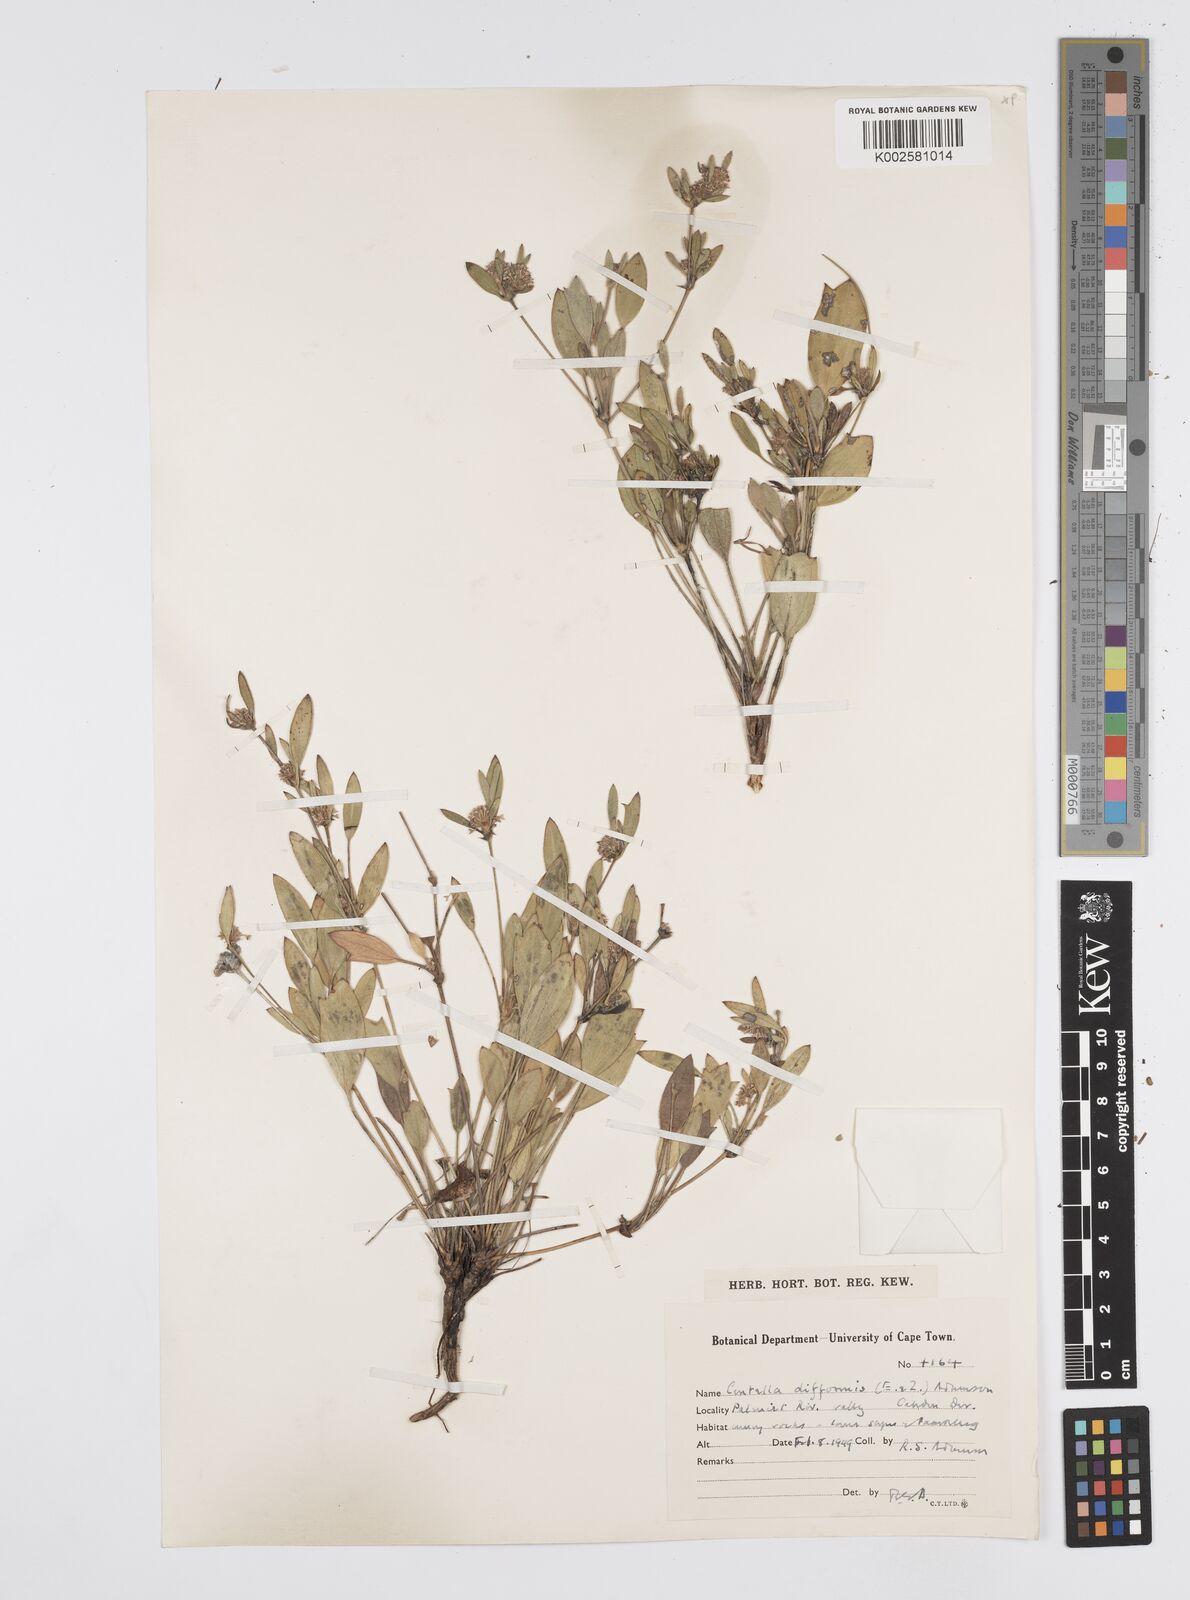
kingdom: Plantae
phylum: Tracheophyta
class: Magnoliopsida
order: Apiales
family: Apiaceae
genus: Centella
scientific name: Centella difformis
